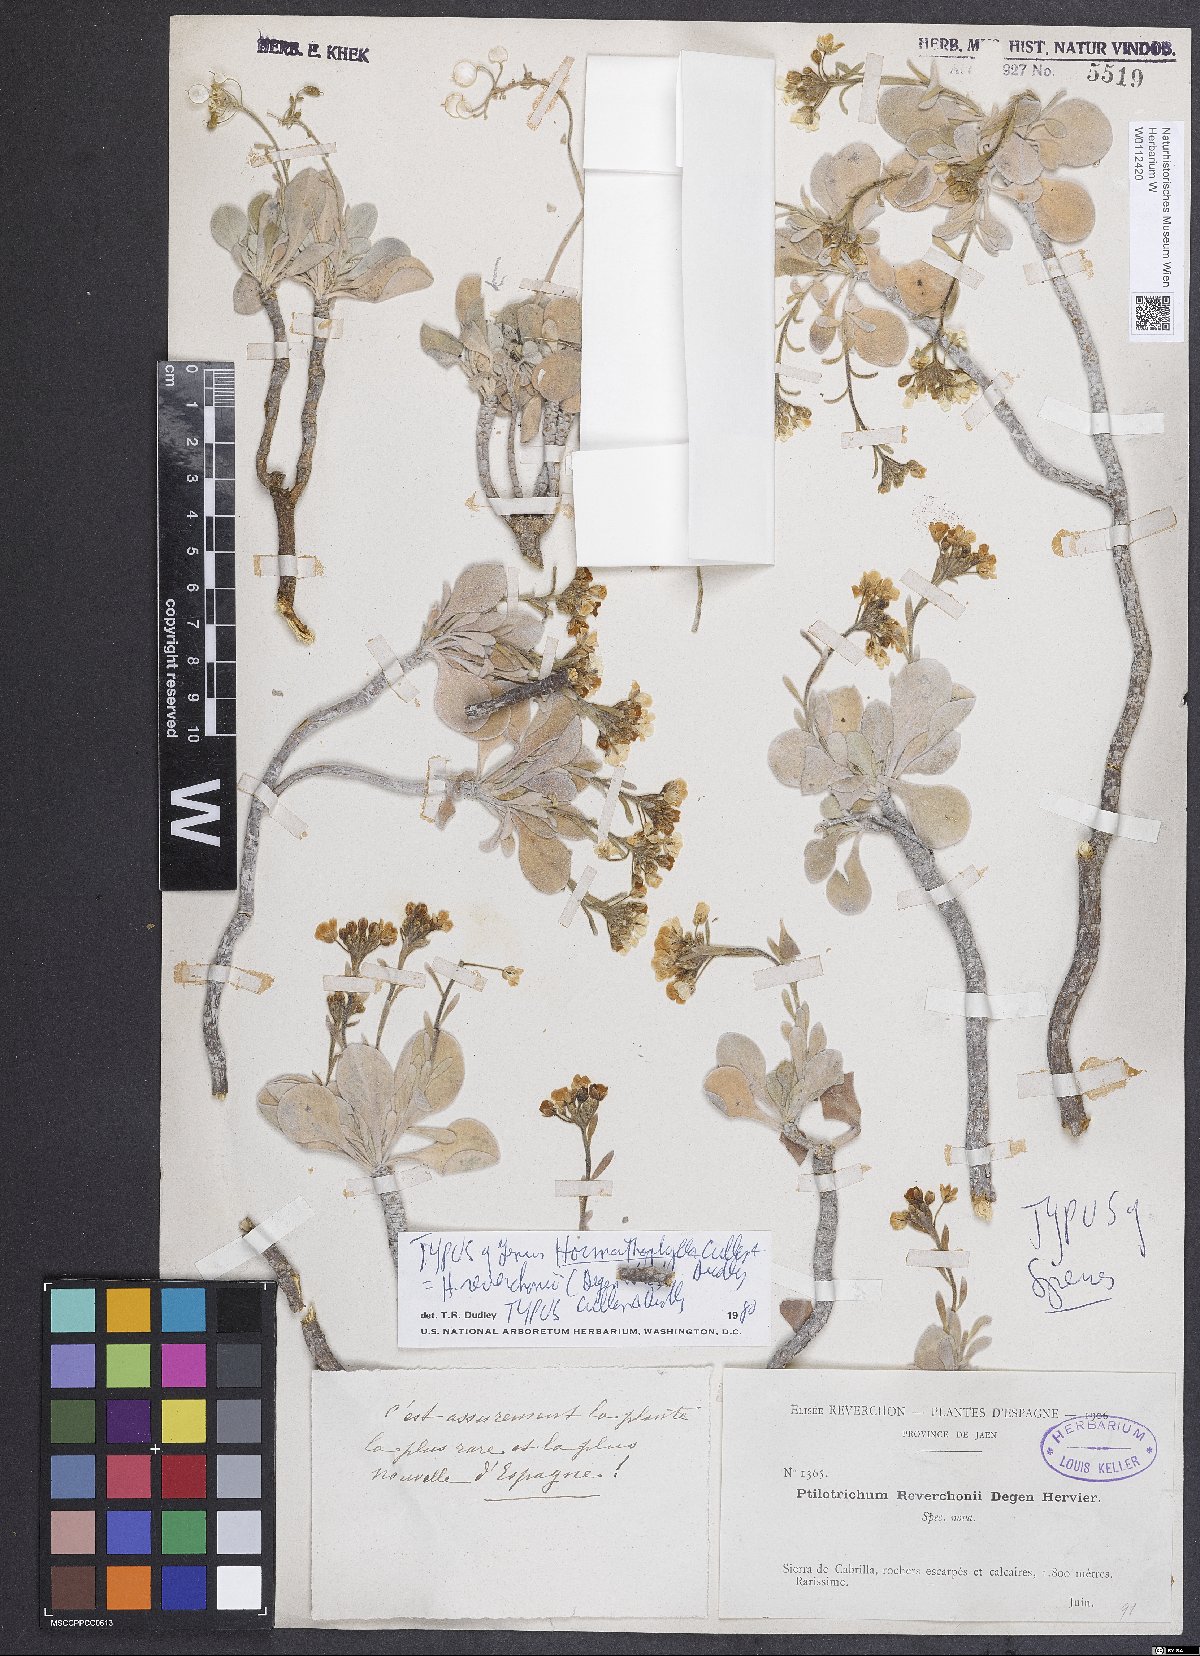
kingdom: Plantae
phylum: Tracheophyta
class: Magnoliopsida
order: Brassicales
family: Brassicaceae
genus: Hormathophylla
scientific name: Hormathophylla reverchonii
